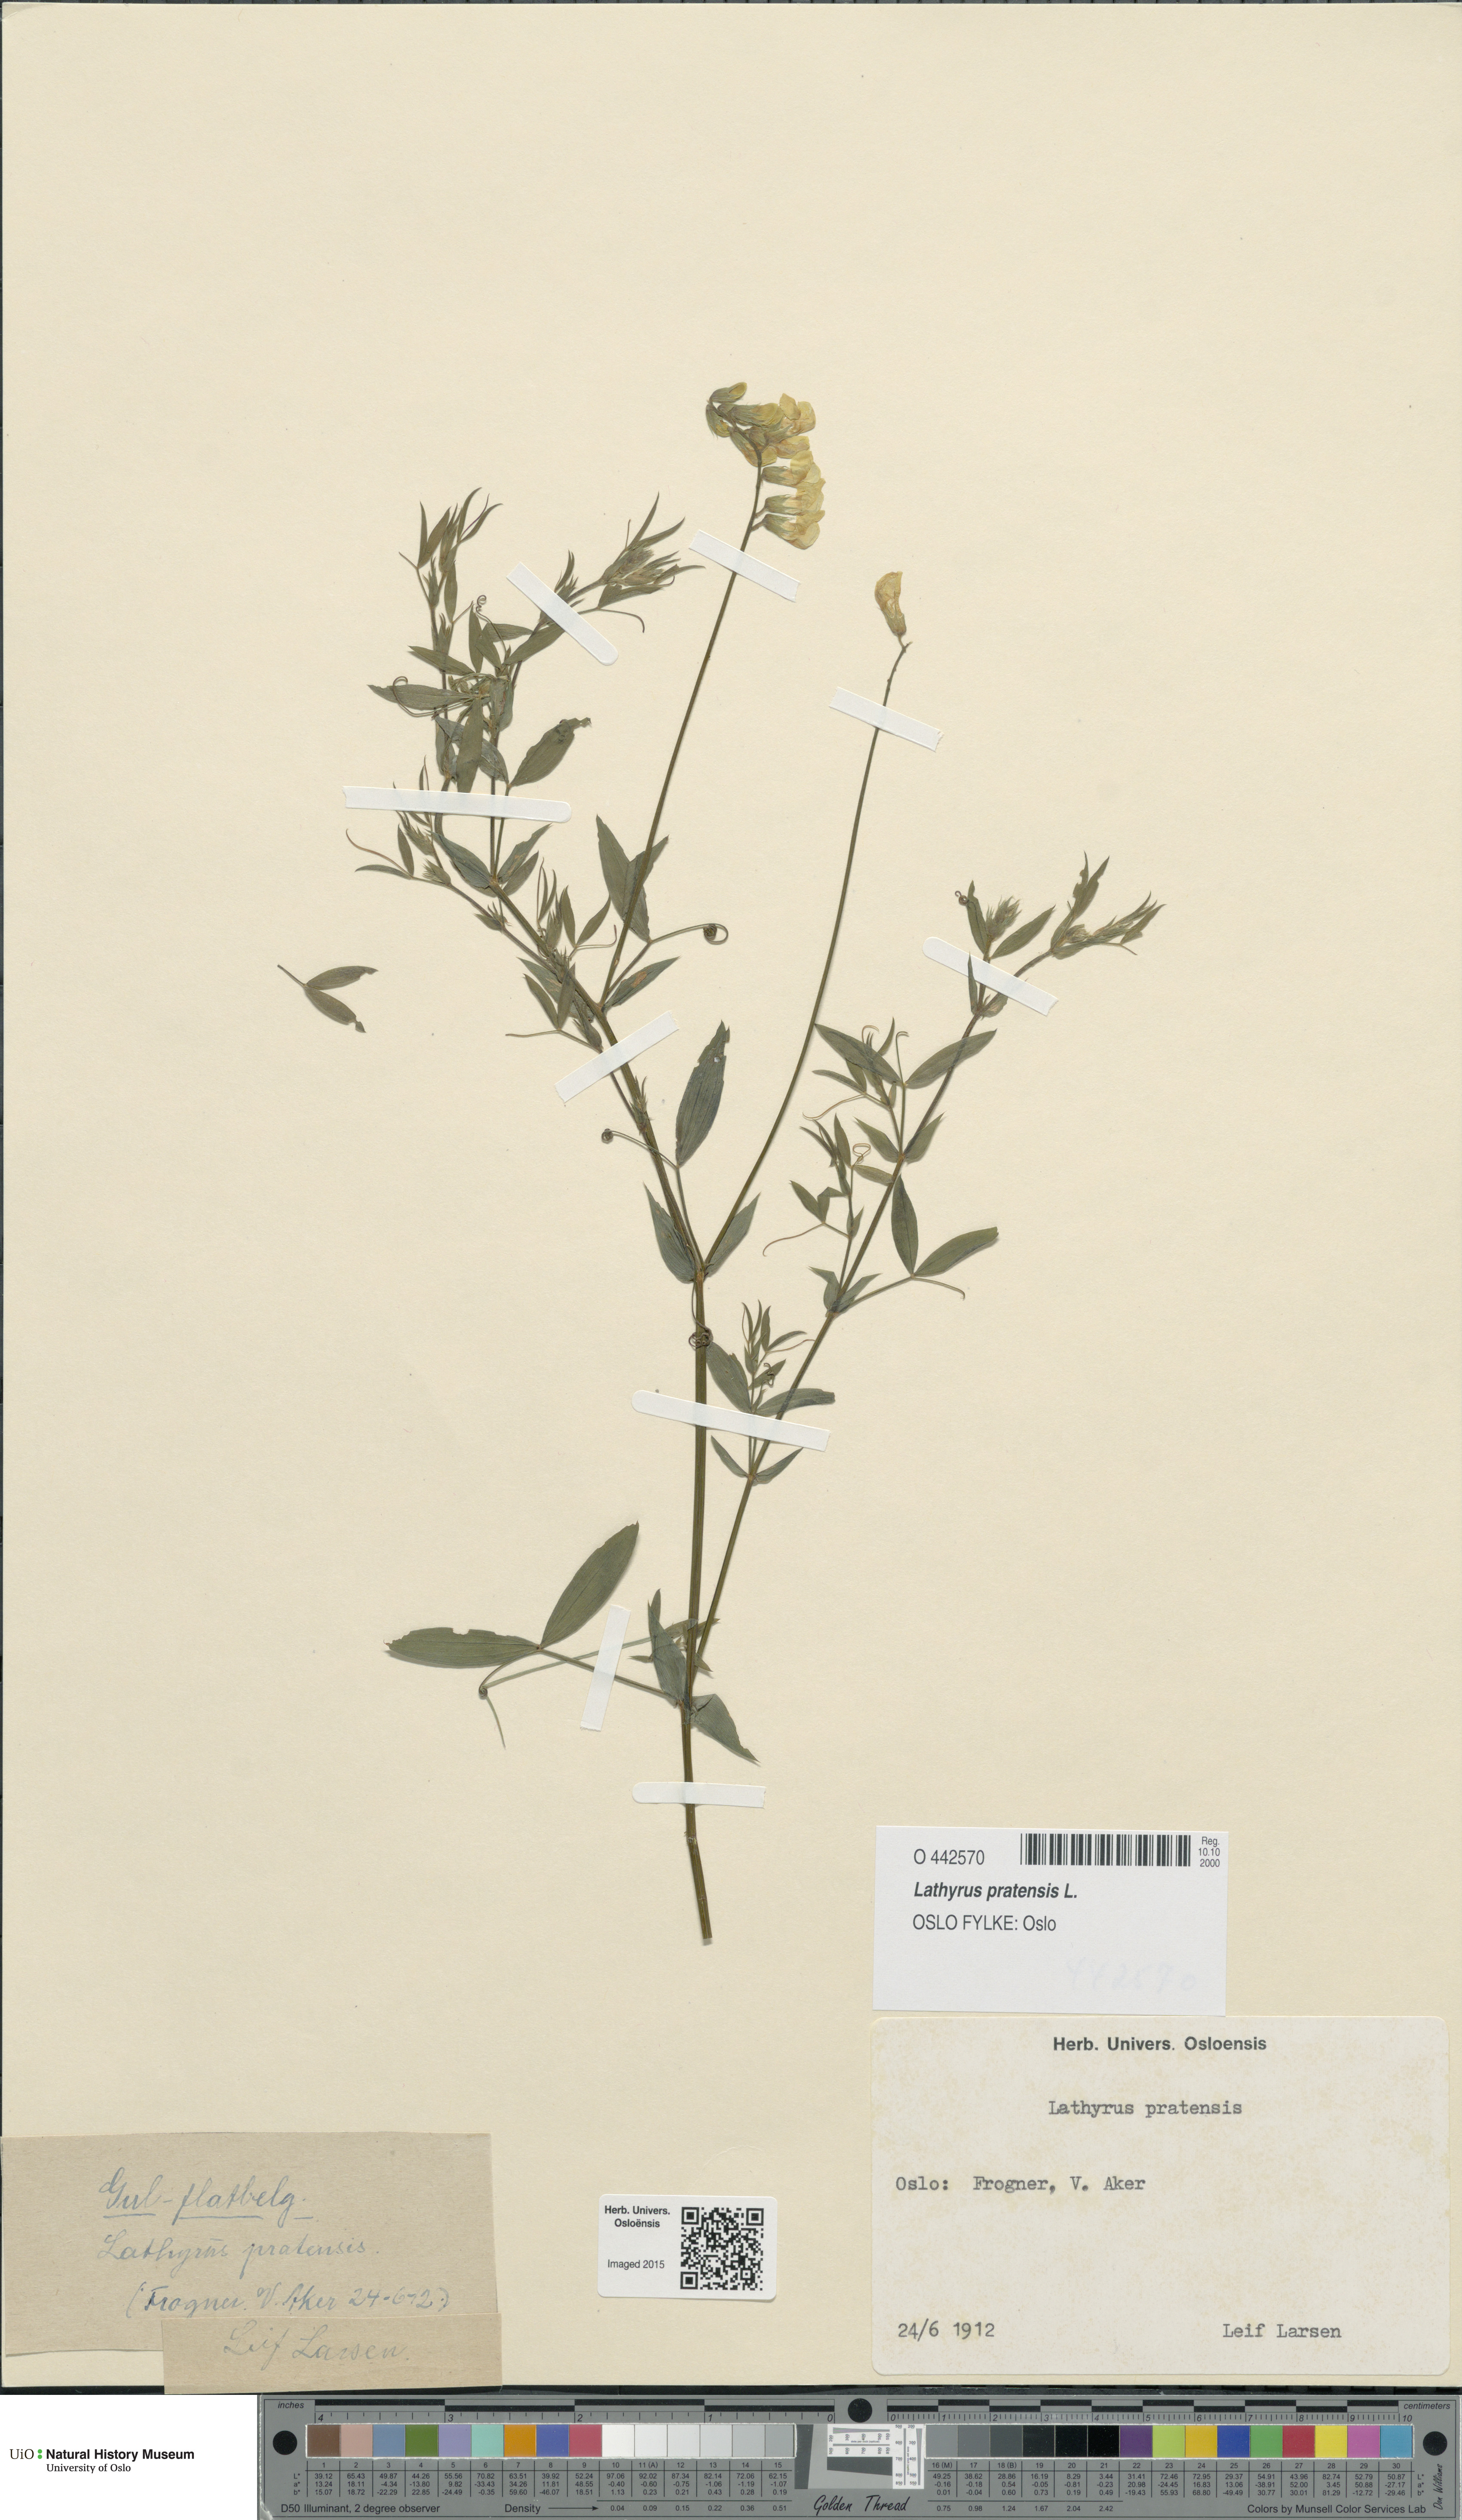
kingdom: Plantae
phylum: Tracheophyta
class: Magnoliopsida
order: Fabales
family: Fabaceae
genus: Lathyrus
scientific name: Lathyrus pratensis
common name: Meadow vetchling
